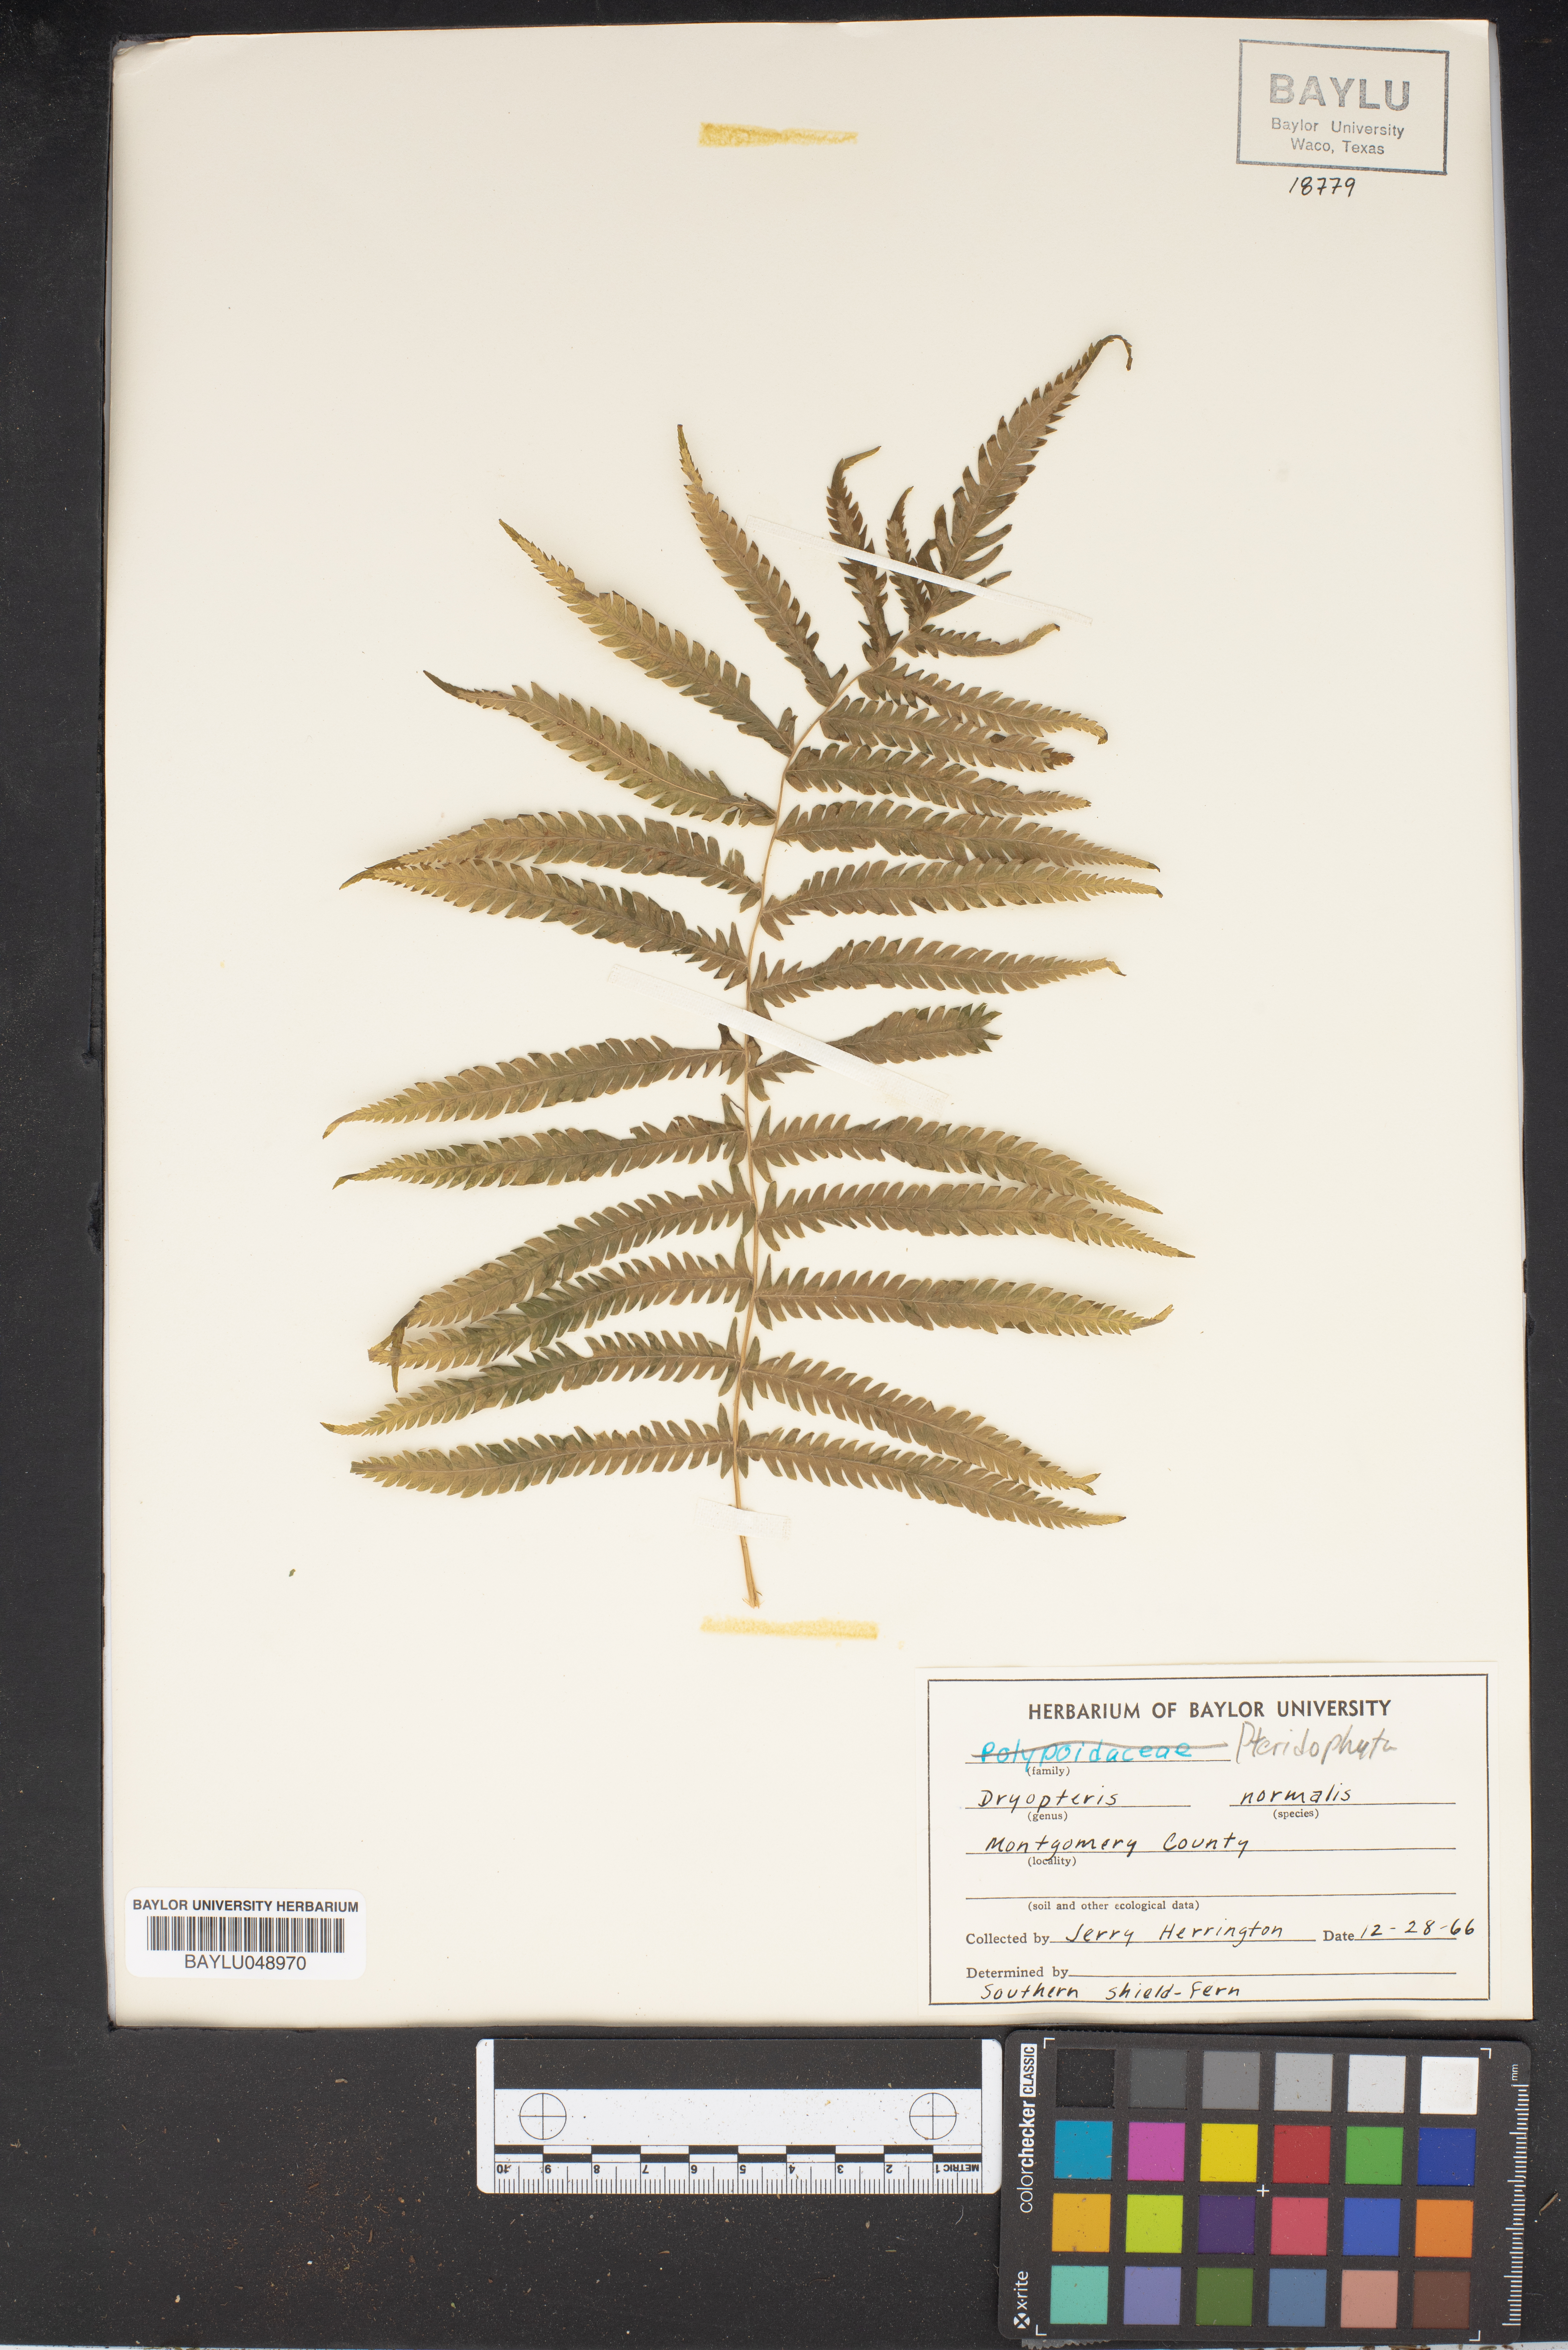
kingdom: Plantae
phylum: Tracheophyta
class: Polypodiopsida
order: Polypodiales
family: Thelypteridaceae
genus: Pelazoneuron
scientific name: Pelazoneuron kunthii
